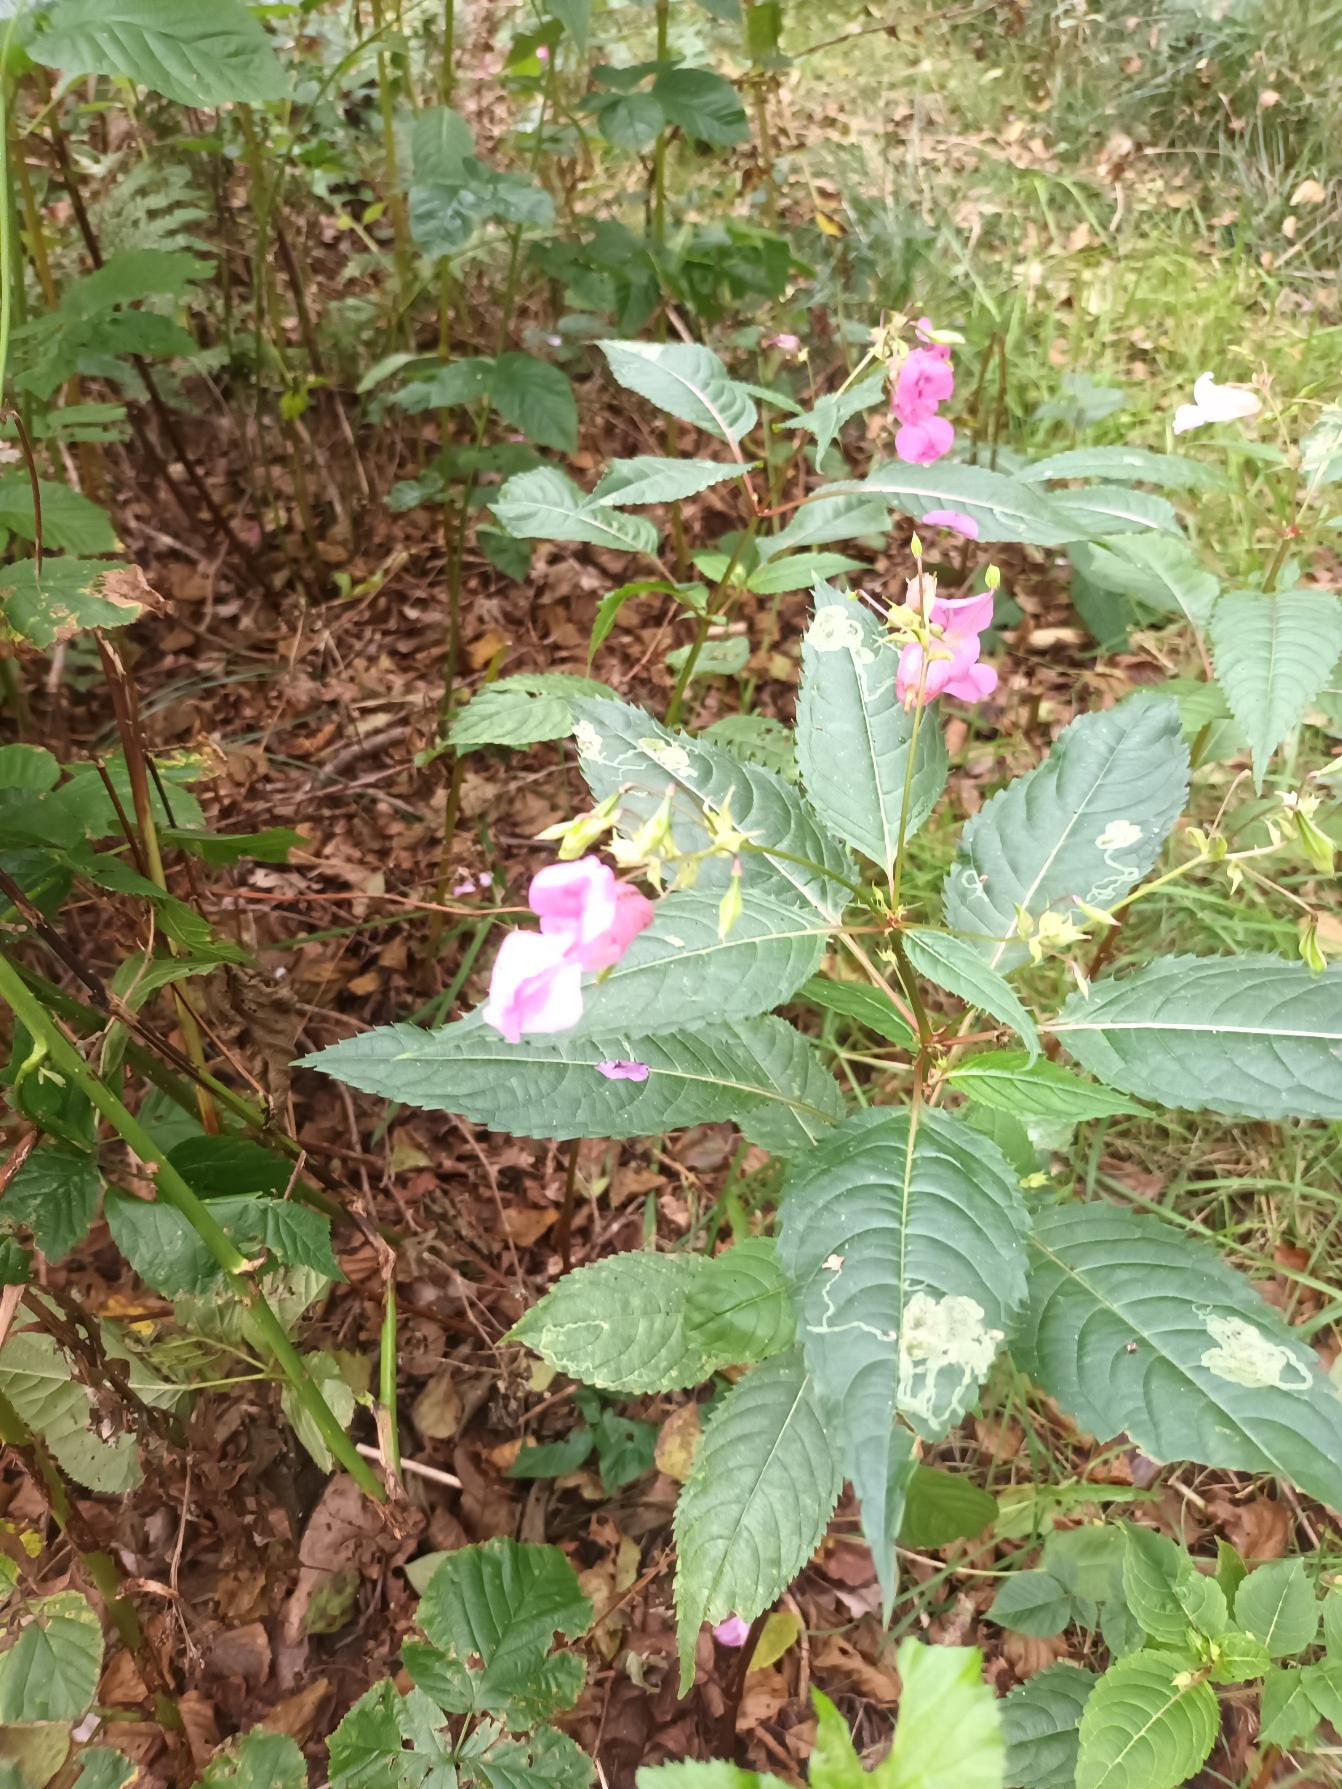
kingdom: Plantae
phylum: Tracheophyta
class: Magnoliopsida
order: Ericales
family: Balsaminaceae
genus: Impatiens
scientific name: Impatiens glandulifera
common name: Kæmpe-balsamin
